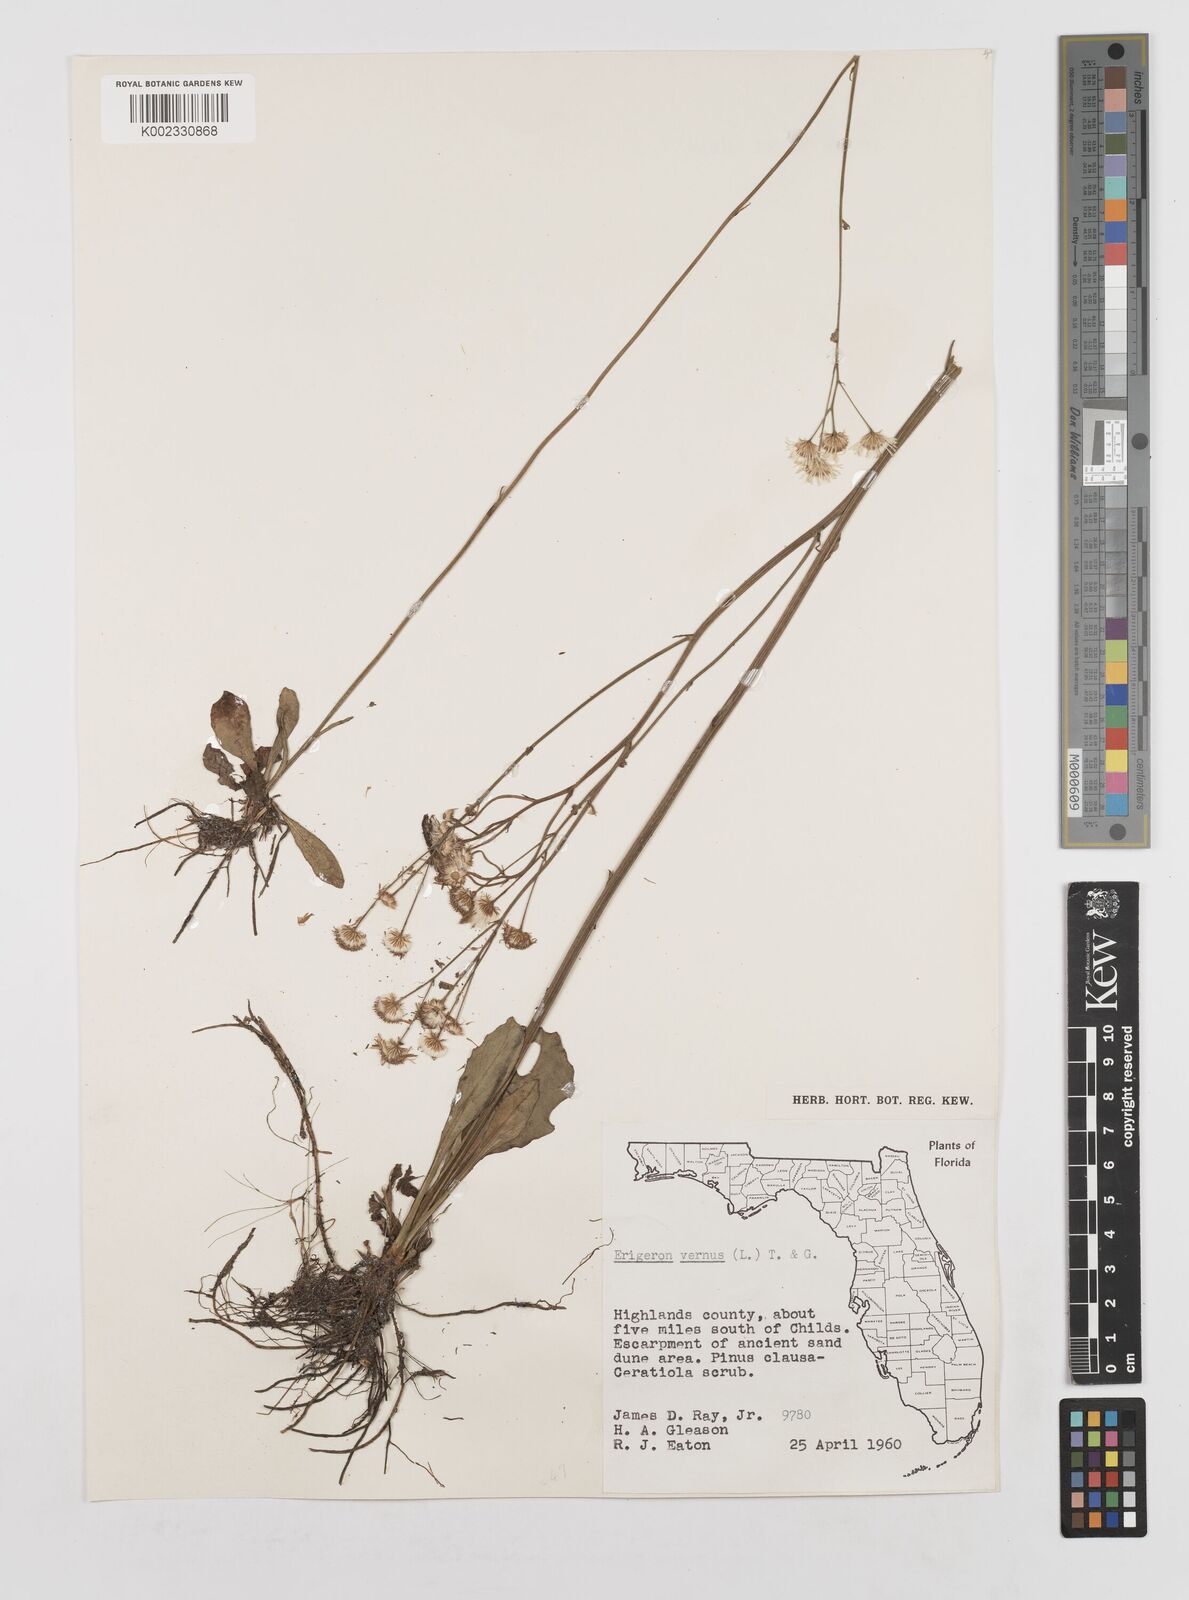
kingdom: Plantae
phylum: Tracheophyta
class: Magnoliopsida
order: Asterales
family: Asteraceae
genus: Erigeron
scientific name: Erigeron vernus
